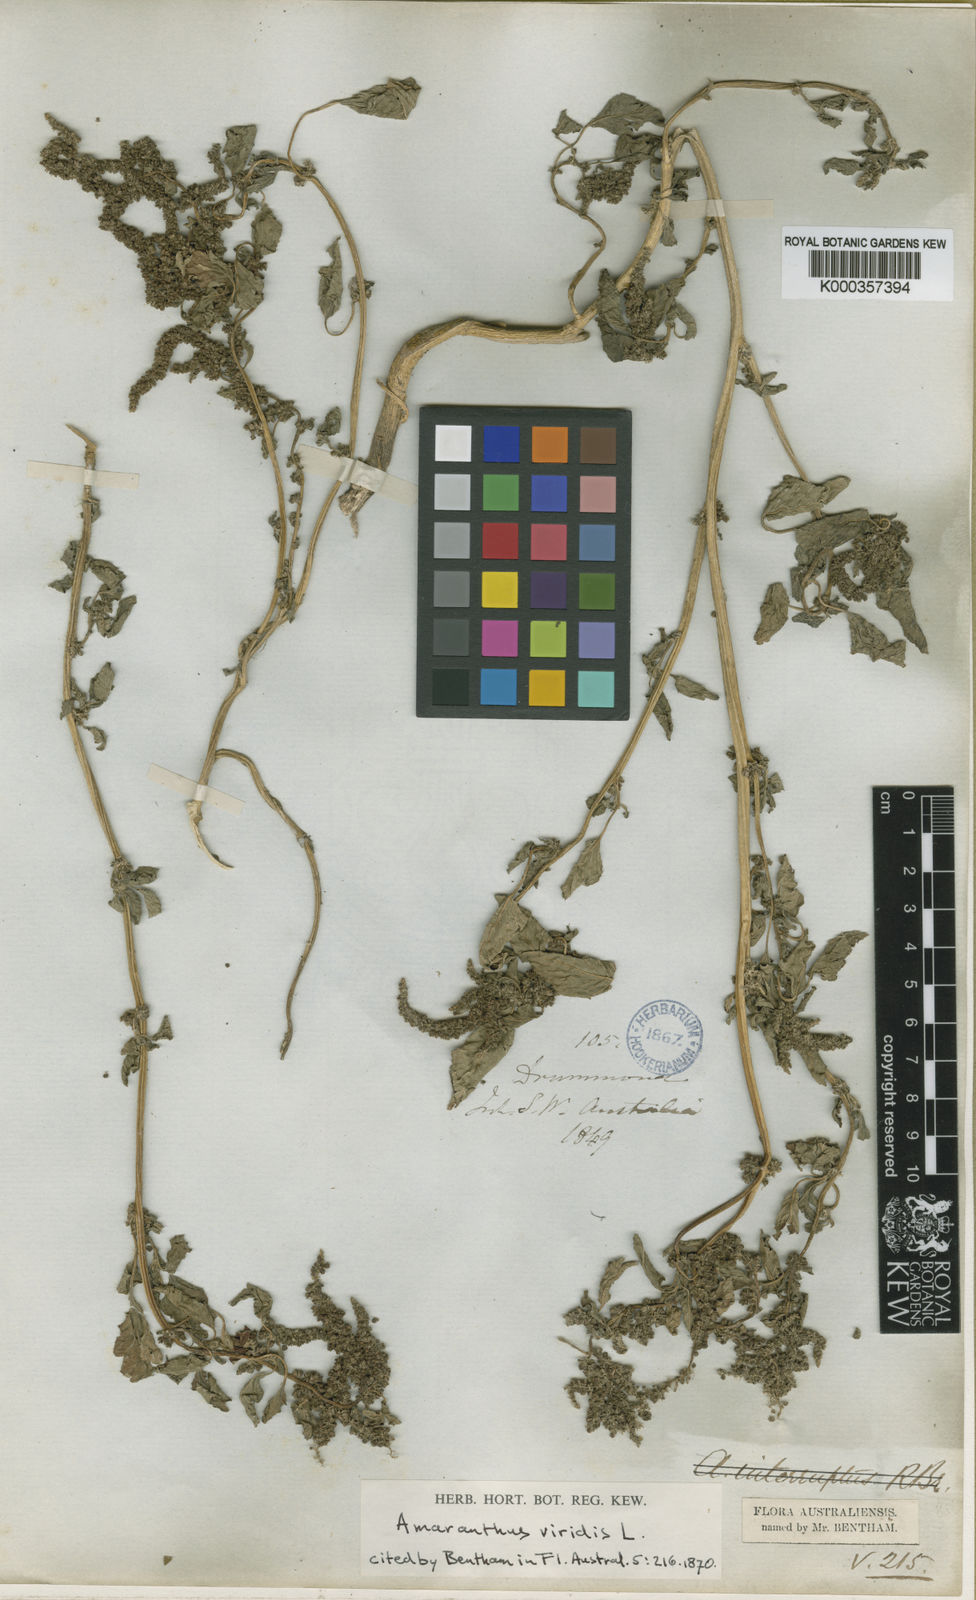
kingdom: Plantae
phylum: Tracheophyta
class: Magnoliopsida
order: Caryophyllales
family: Amaranthaceae
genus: Amaranthus
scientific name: Amaranthus viridis
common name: Slender amaranth
